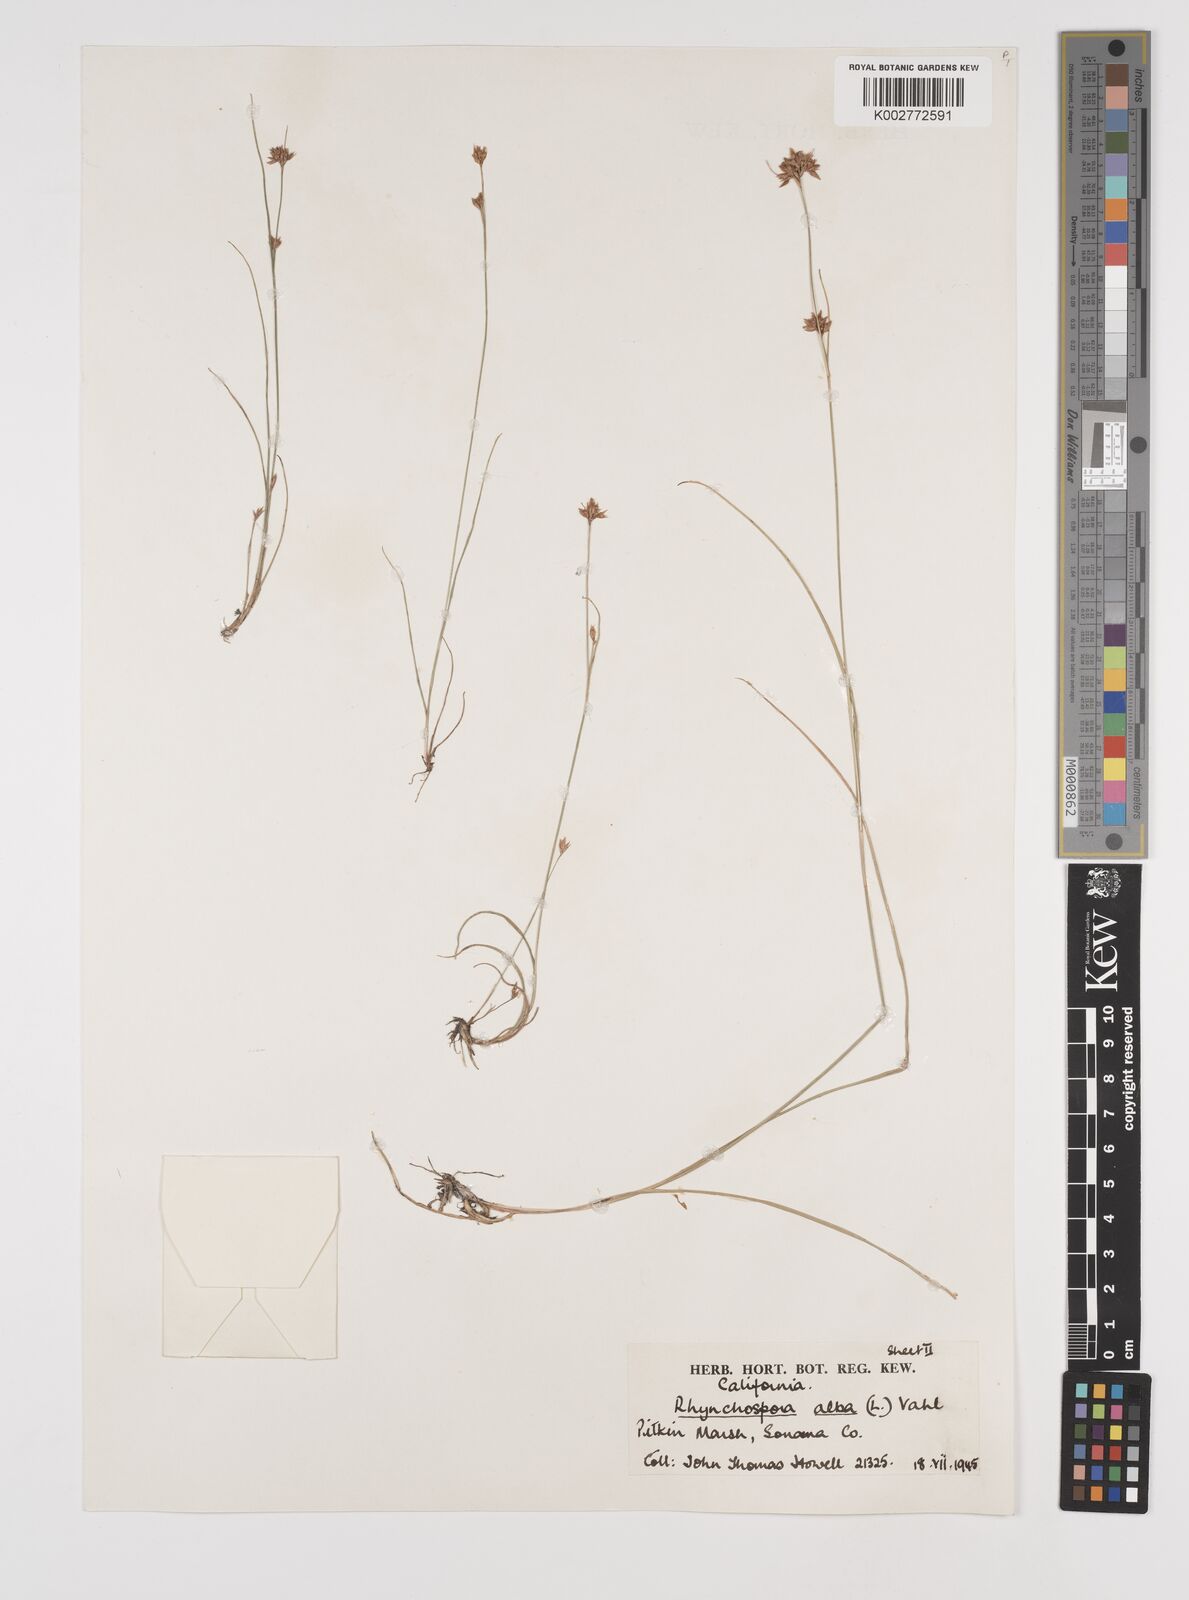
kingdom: Plantae
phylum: Tracheophyta
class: Liliopsida
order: Poales
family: Cyperaceae
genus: Rhynchospora
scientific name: Rhynchospora alba
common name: White beak-sedge
